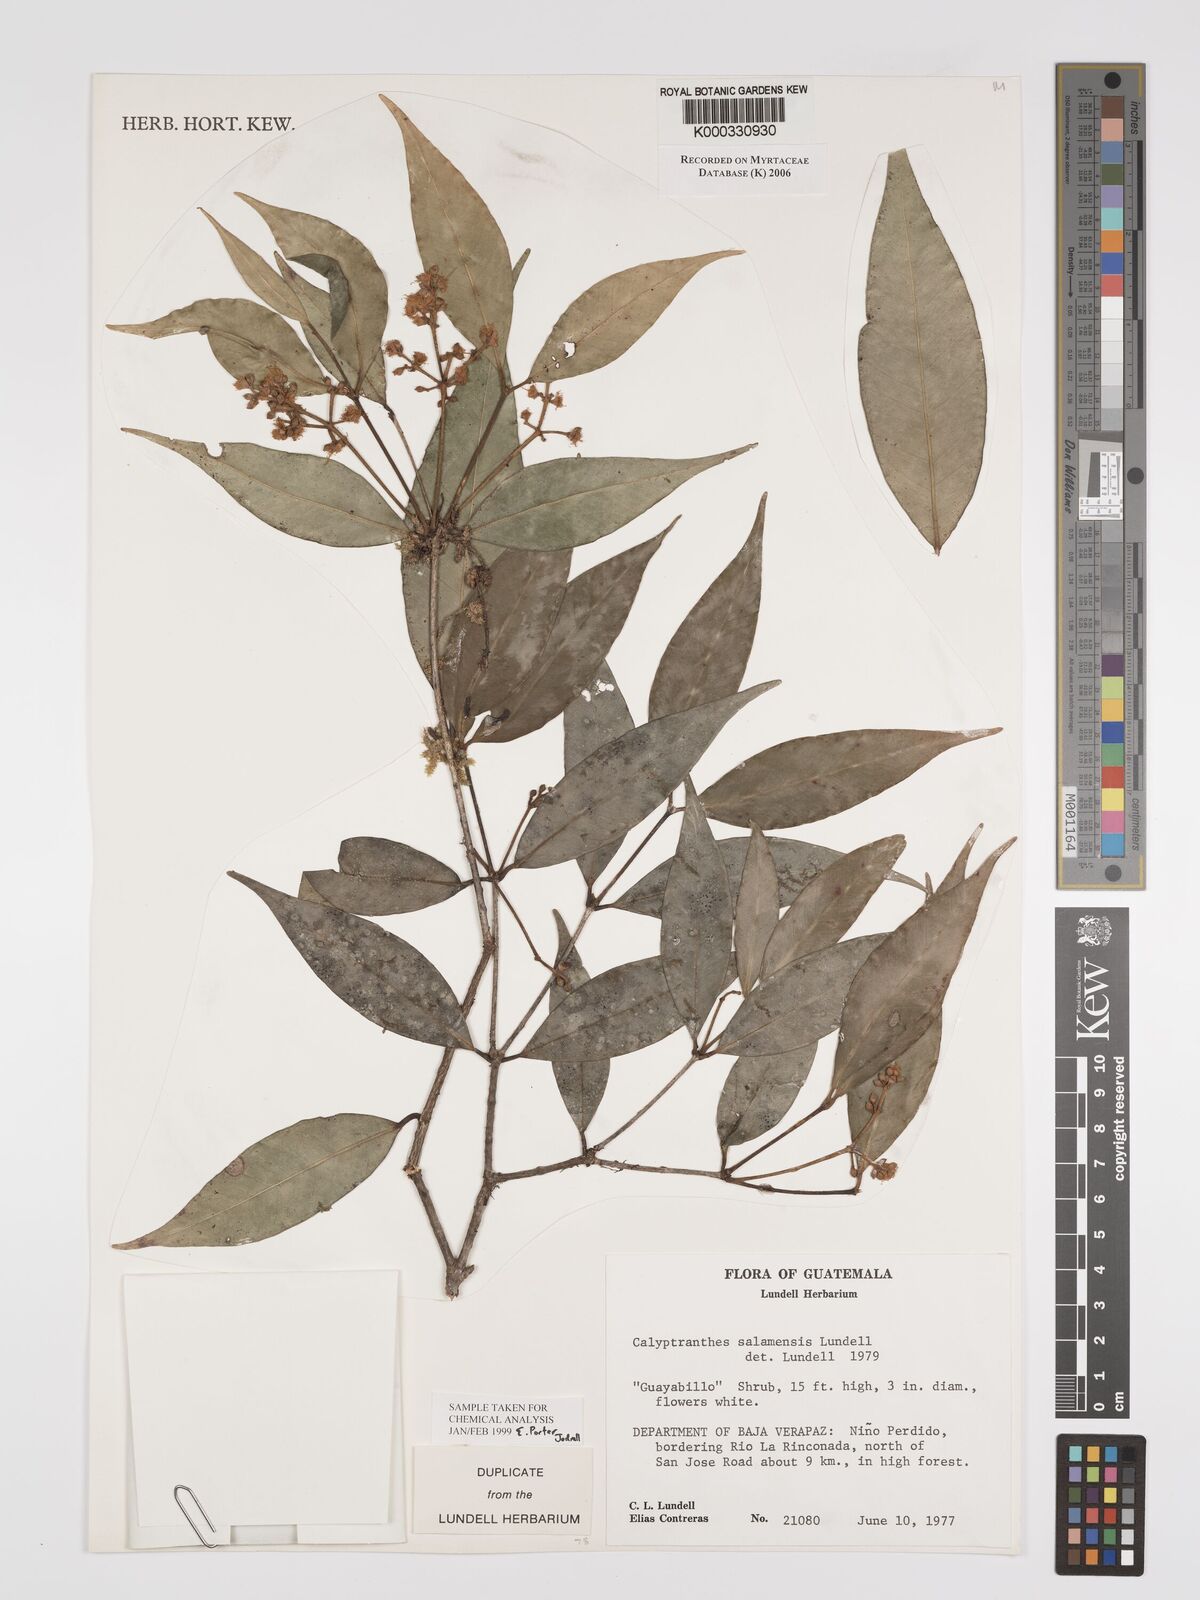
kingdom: Plantae
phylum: Tracheophyta
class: Magnoliopsida
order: Myrtales
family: Myrtaceae
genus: Myrcia
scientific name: Myrcia salamensis
